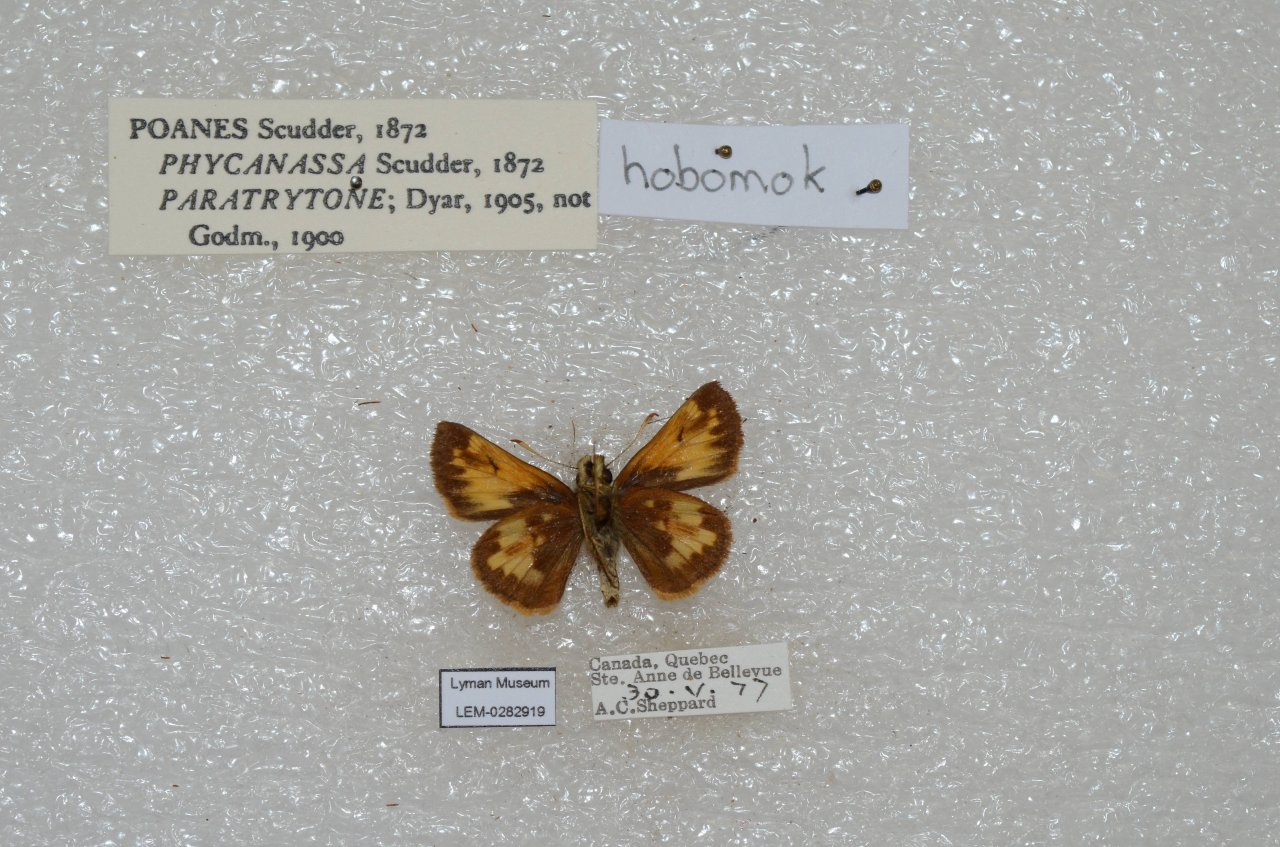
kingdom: Animalia
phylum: Arthropoda
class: Insecta
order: Lepidoptera
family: Hesperiidae
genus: Lon
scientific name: Lon hobomok
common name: Hobomok Skipper
